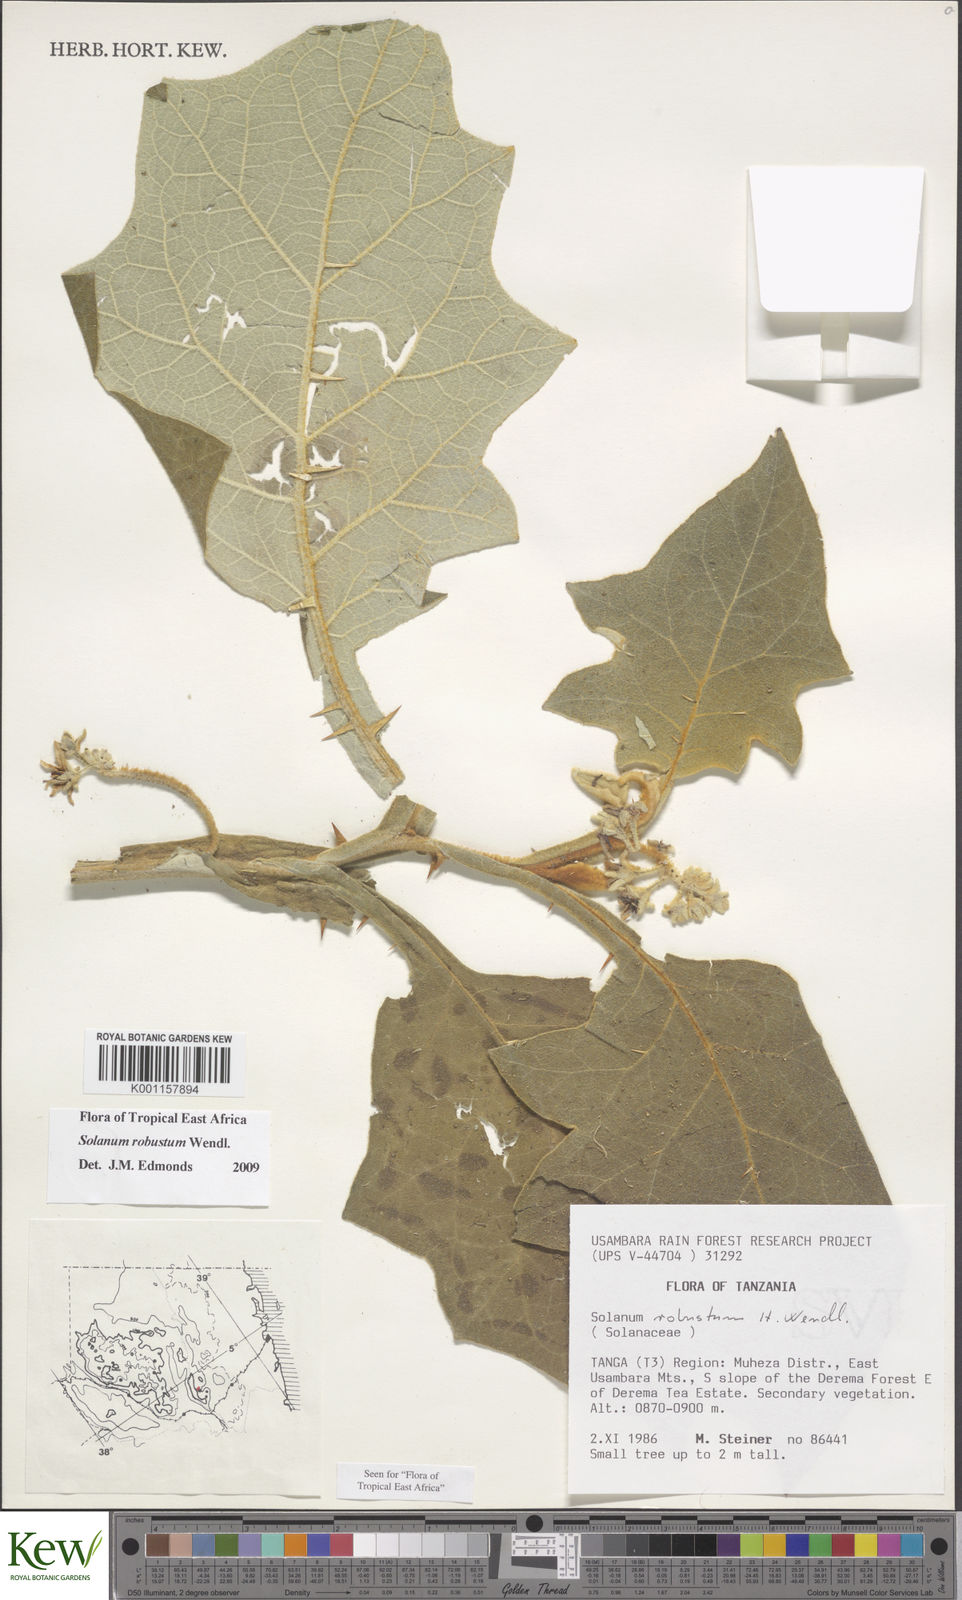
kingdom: Plantae
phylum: Tracheophyta
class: Magnoliopsida
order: Solanales
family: Solanaceae
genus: Solanum
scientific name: Solanum robustum
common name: Shrubby nightshade
